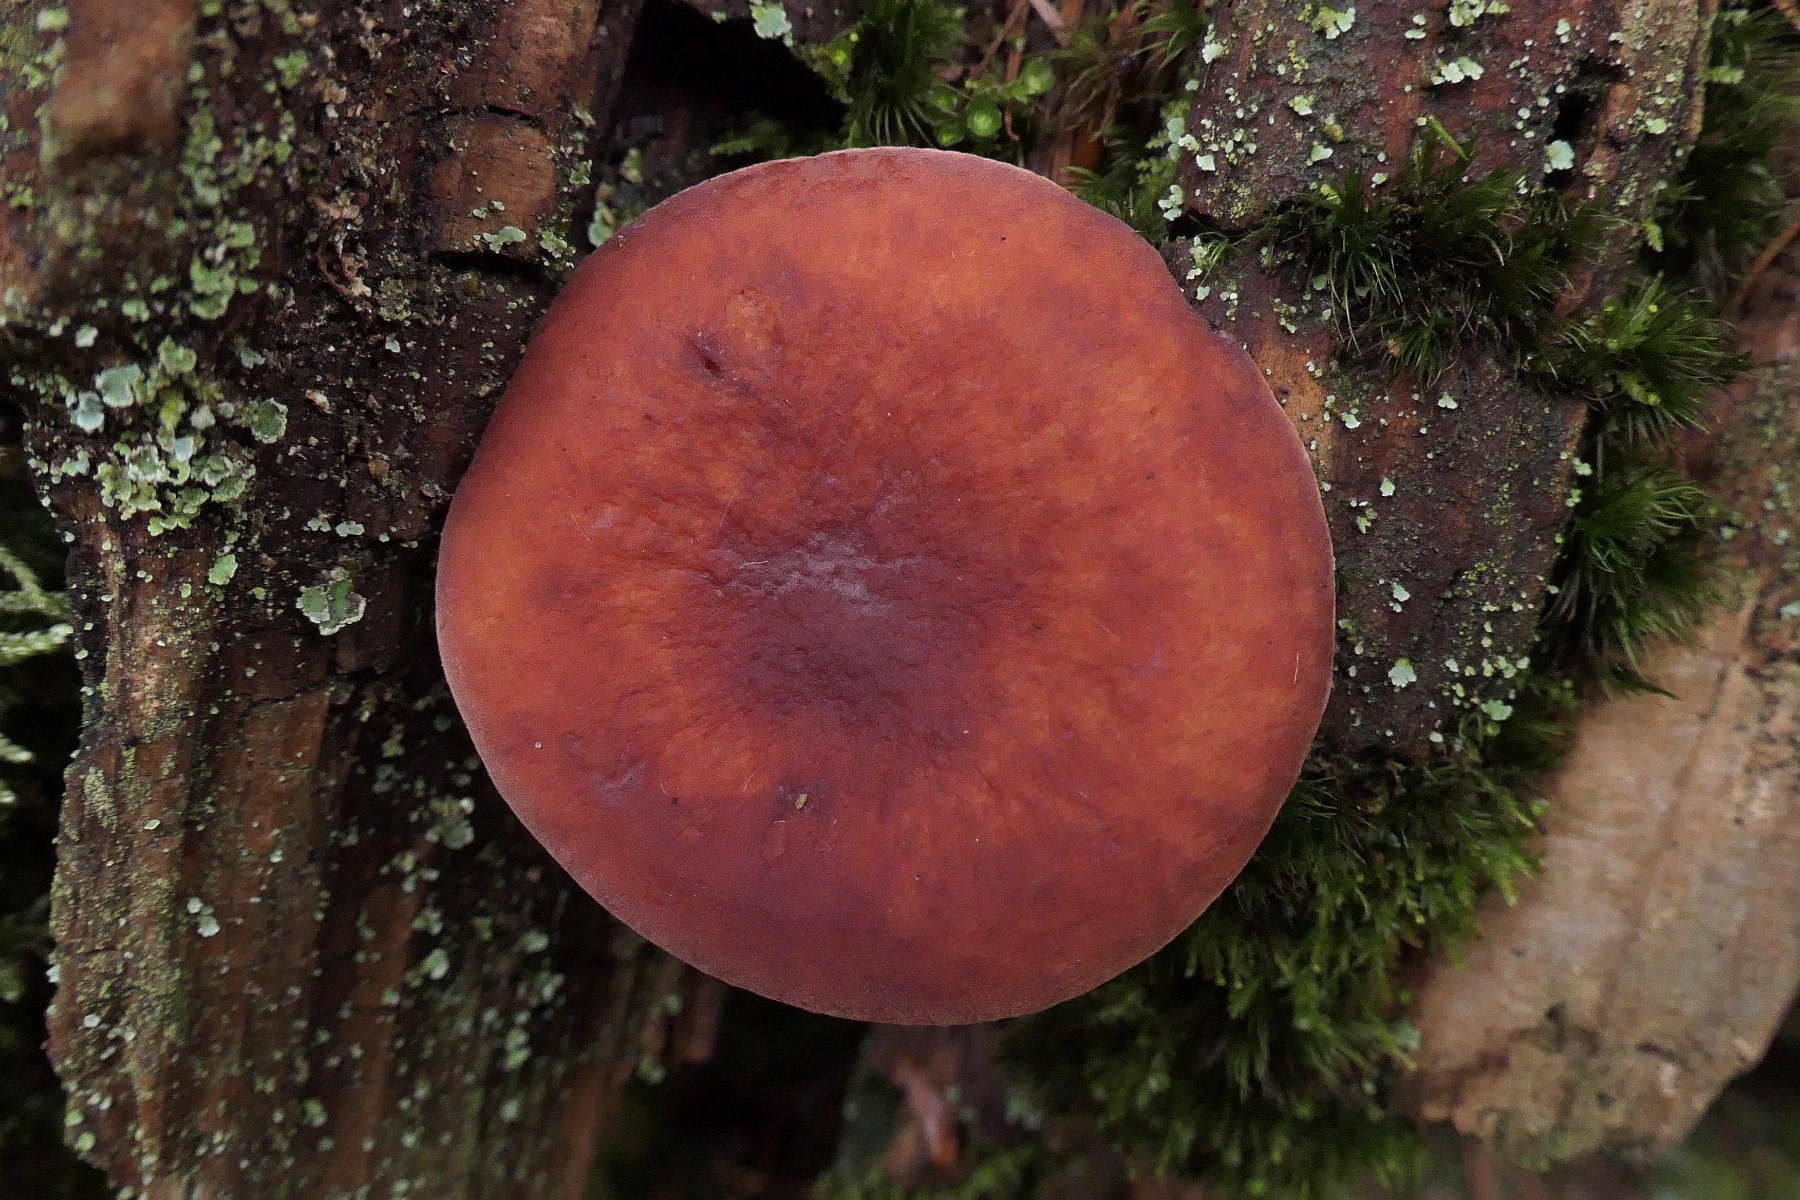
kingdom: Fungi
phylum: Basidiomycota
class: Agaricomycetes
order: Russulales
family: Russulaceae
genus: Lactarius
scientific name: Lactarius camphoratus
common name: kamfer-mælkehat
